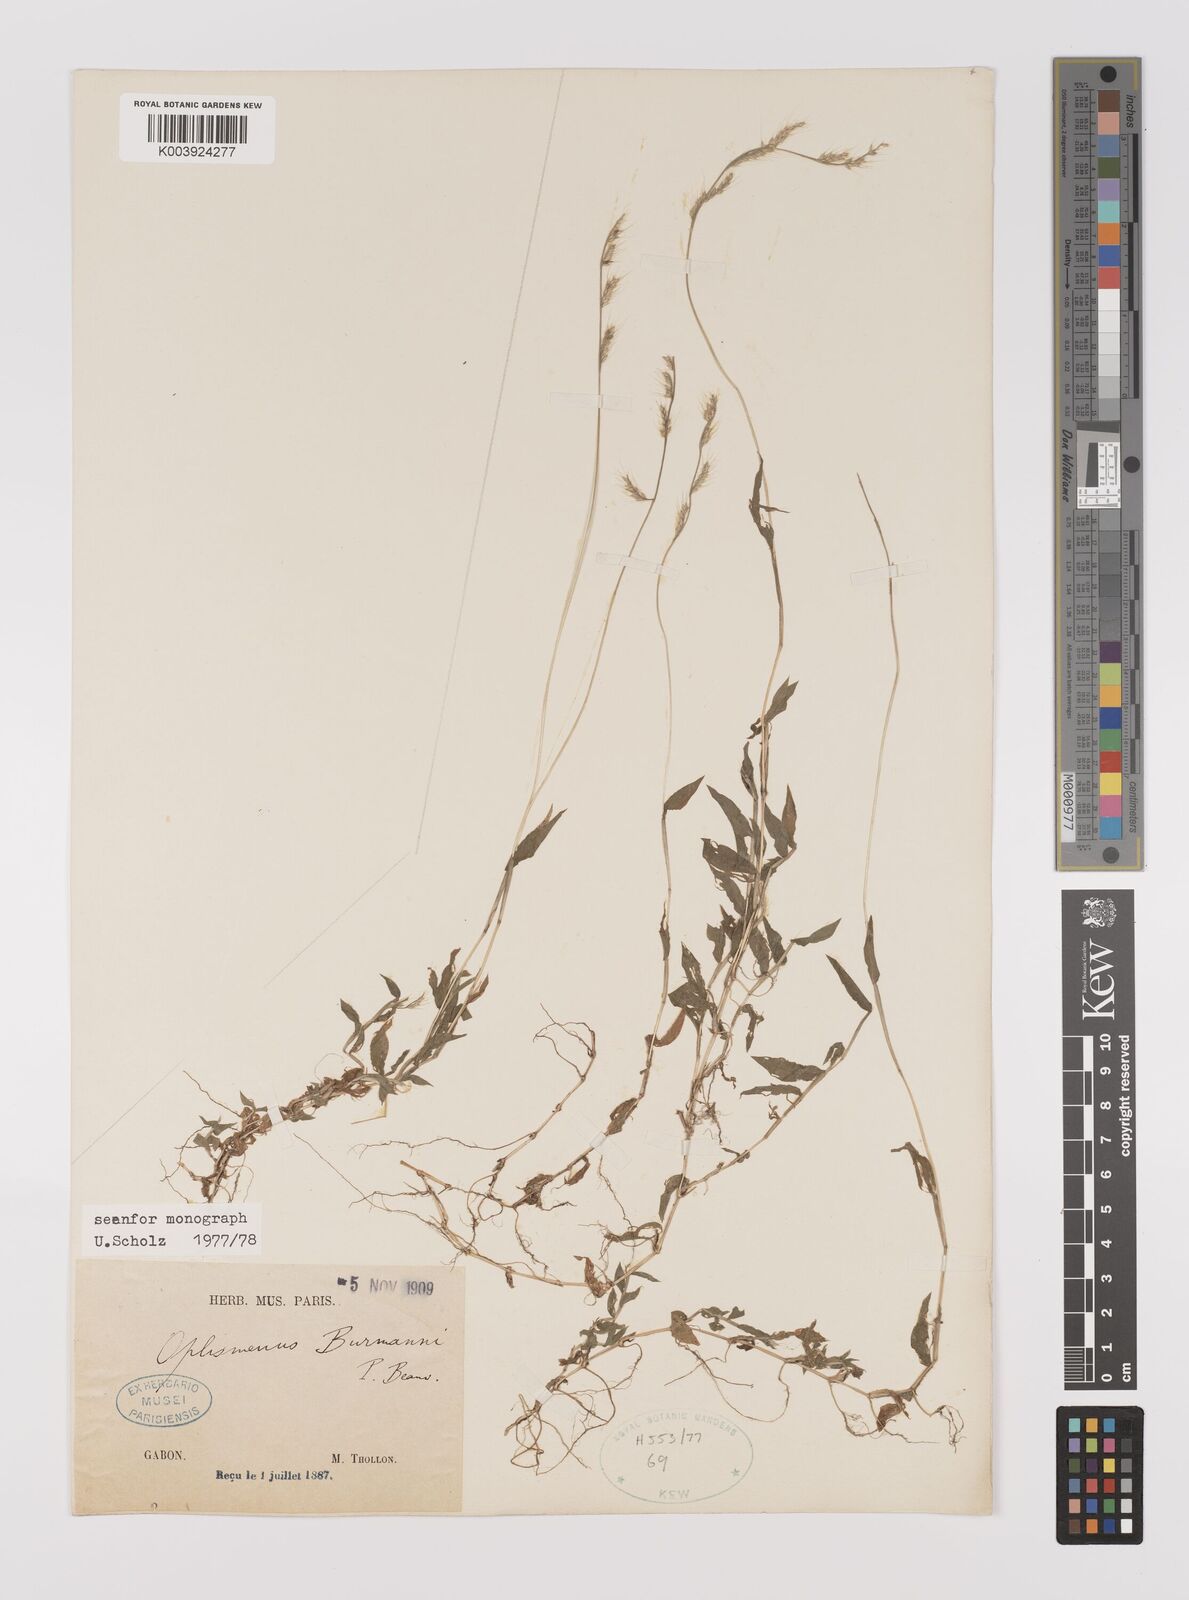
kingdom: Plantae
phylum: Tracheophyta
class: Liliopsida
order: Poales
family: Poaceae
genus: Oplismenus
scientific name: Oplismenus burmanni
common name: Burmann's basketgrass
